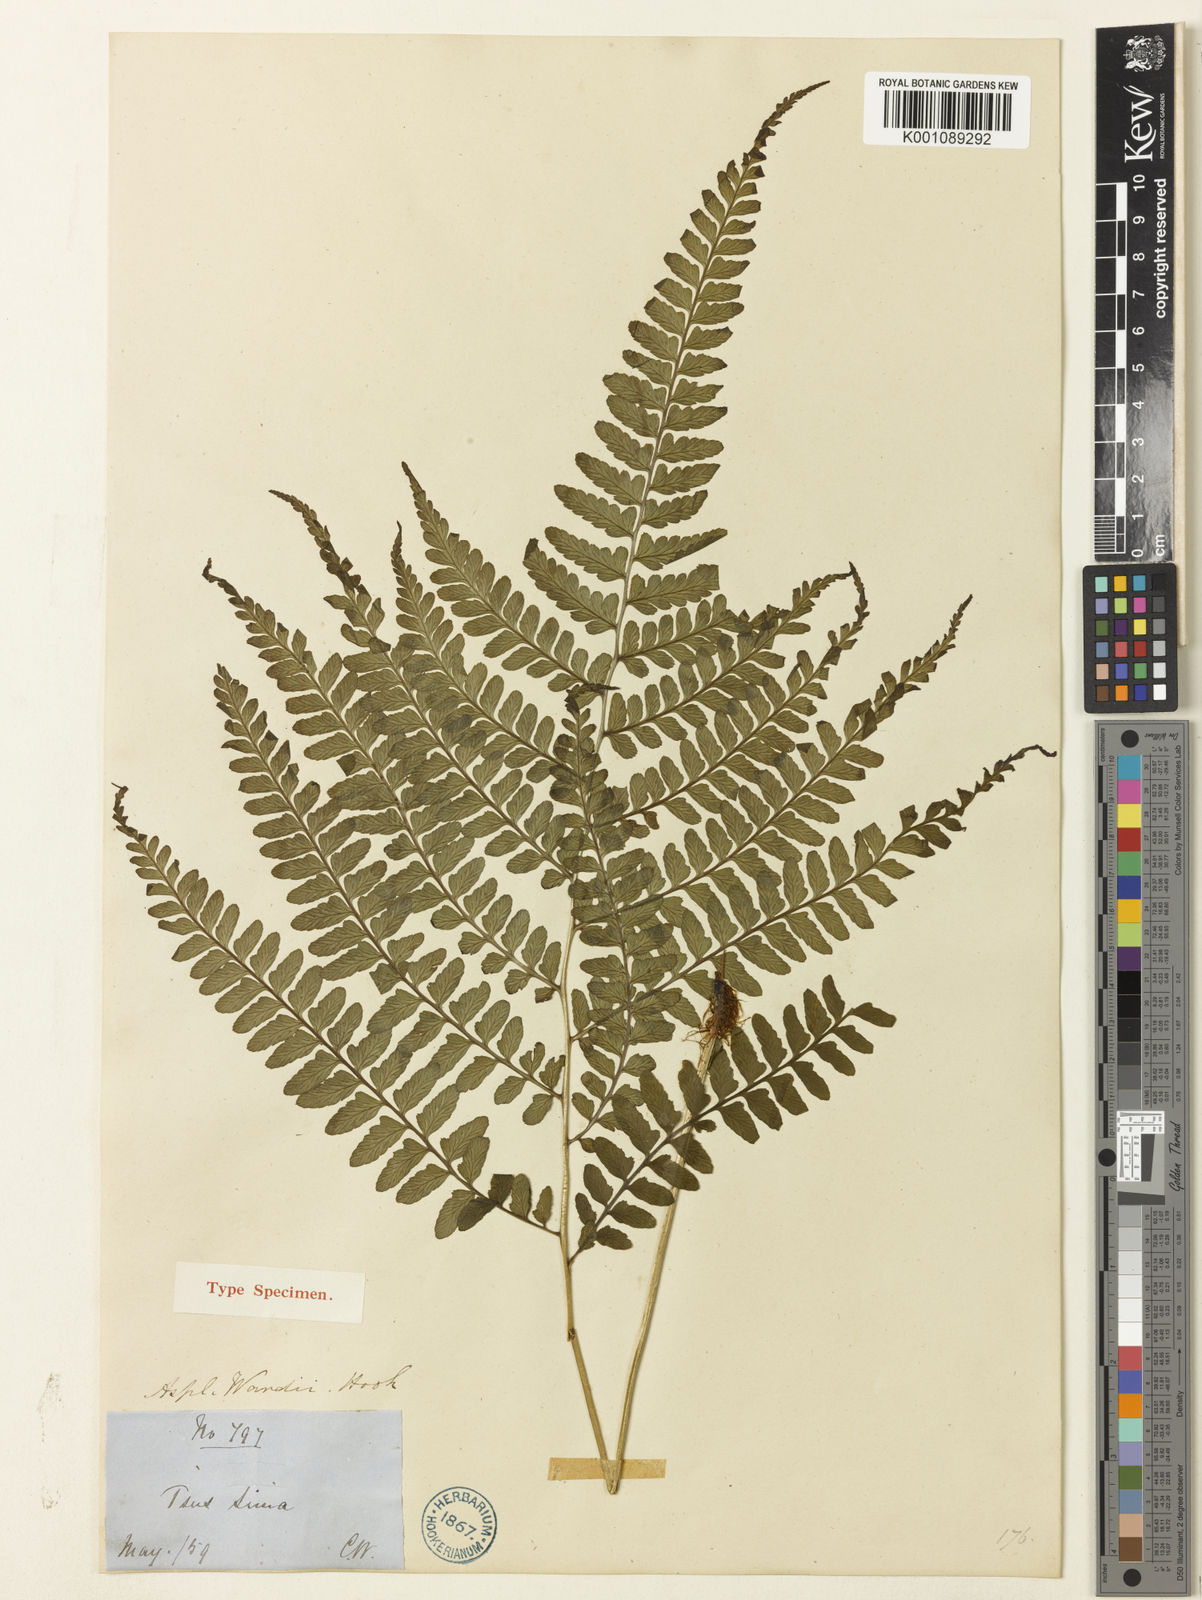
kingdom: Plantae
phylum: Tracheophyta
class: Polypodiopsida
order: Polypodiales
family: Athyriaceae
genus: Athyrium
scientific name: Athyrium wardii
